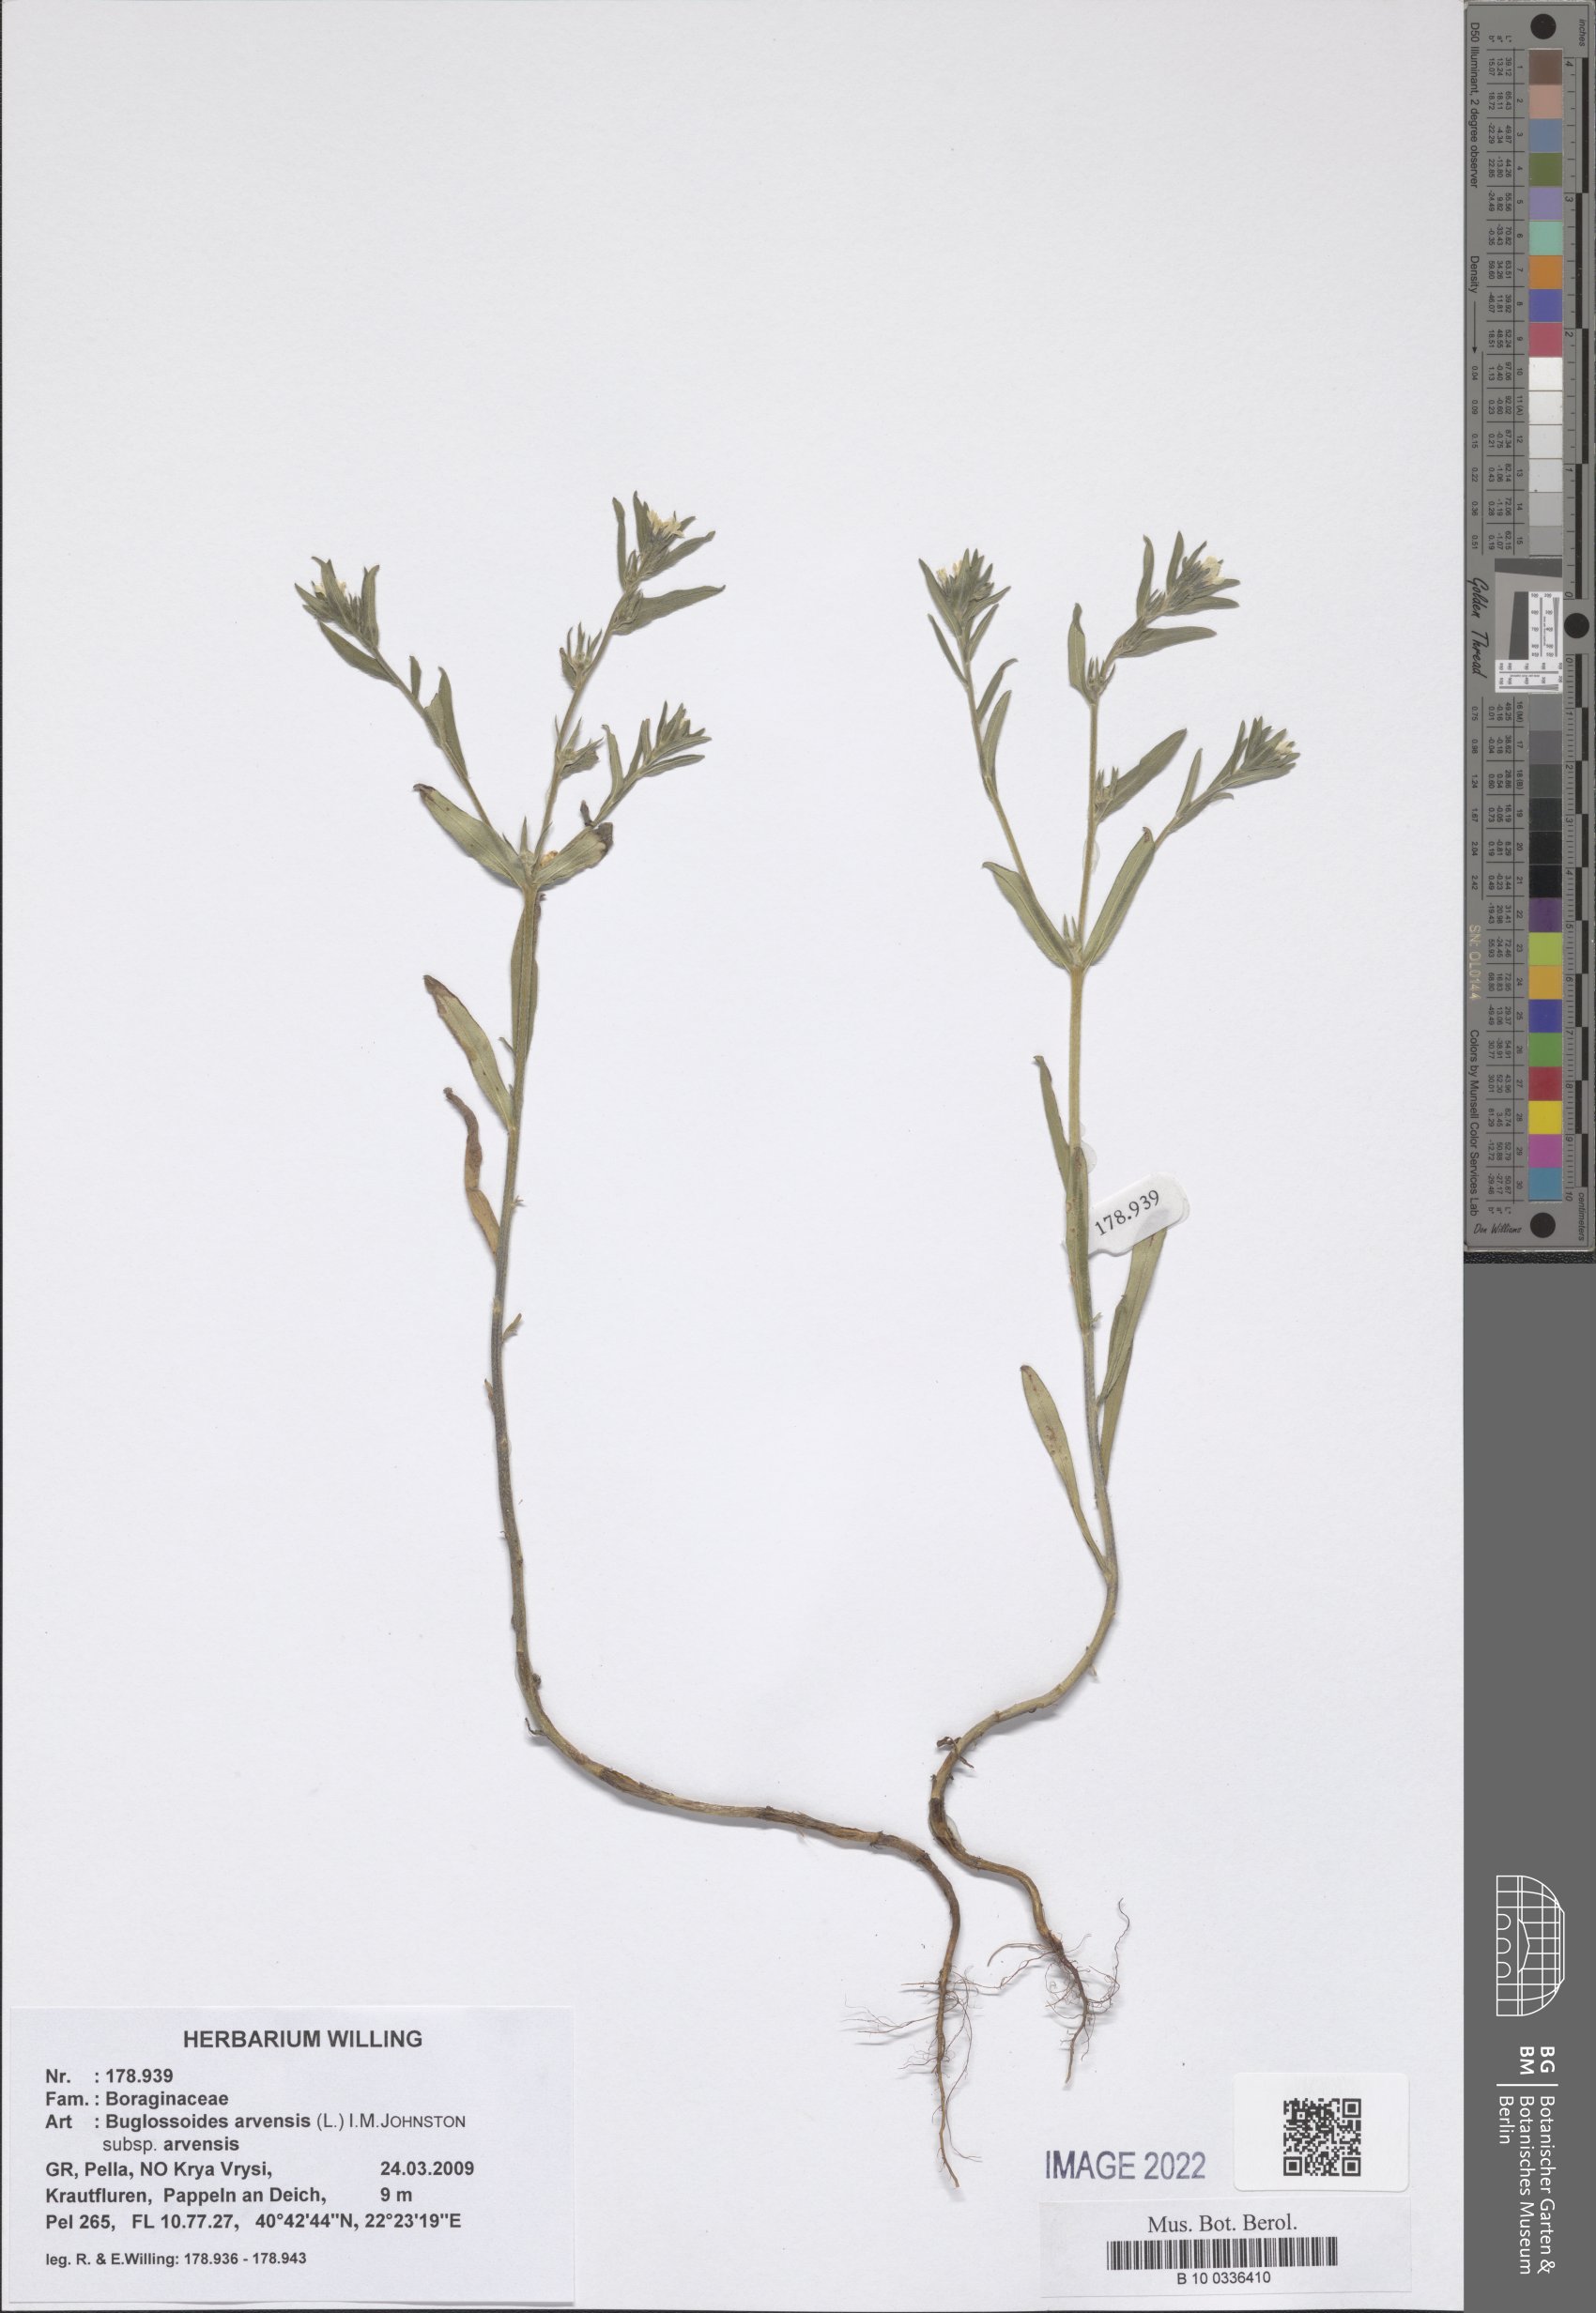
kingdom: Plantae
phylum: Tracheophyta
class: Magnoliopsida
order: Boraginales
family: Boraginaceae
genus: Buglossoides
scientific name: Buglossoides arvensis
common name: Corn gromwell
